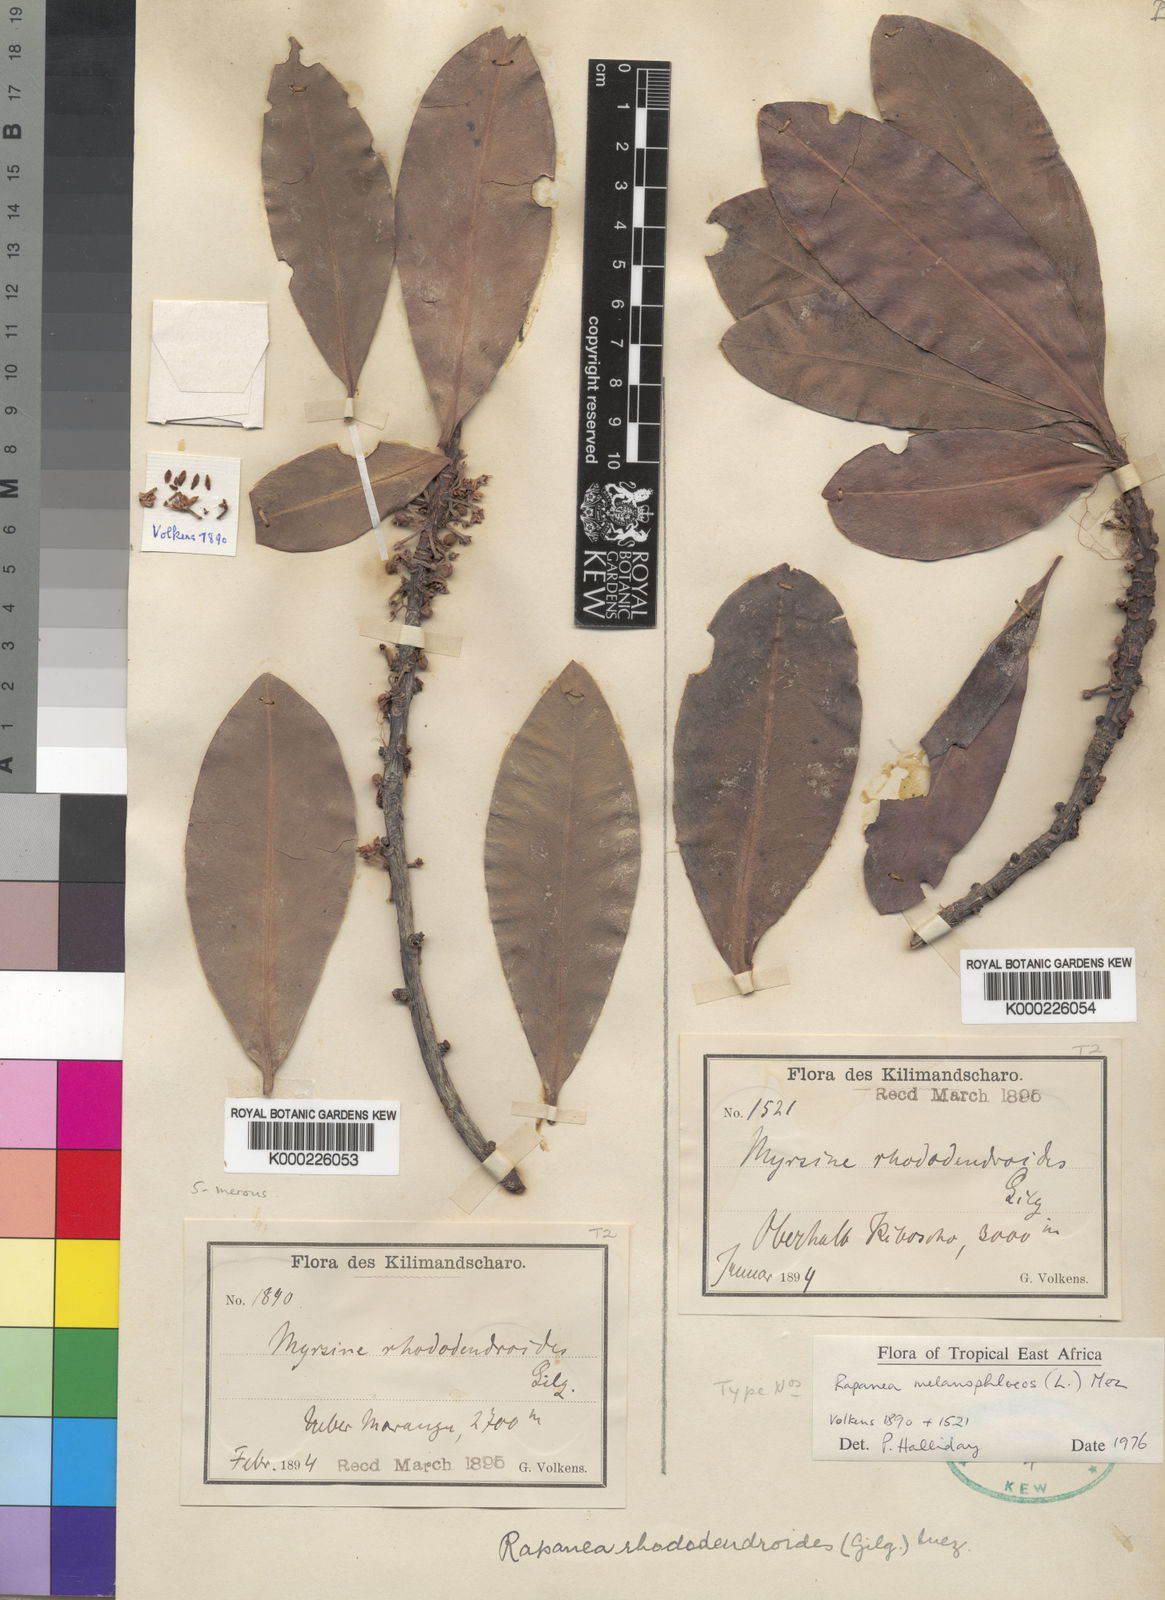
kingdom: Plantae
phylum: Tracheophyta
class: Magnoliopsida
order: Ericales
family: Primulaceae
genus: Myrsine
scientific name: Myrsine melanophloeos
